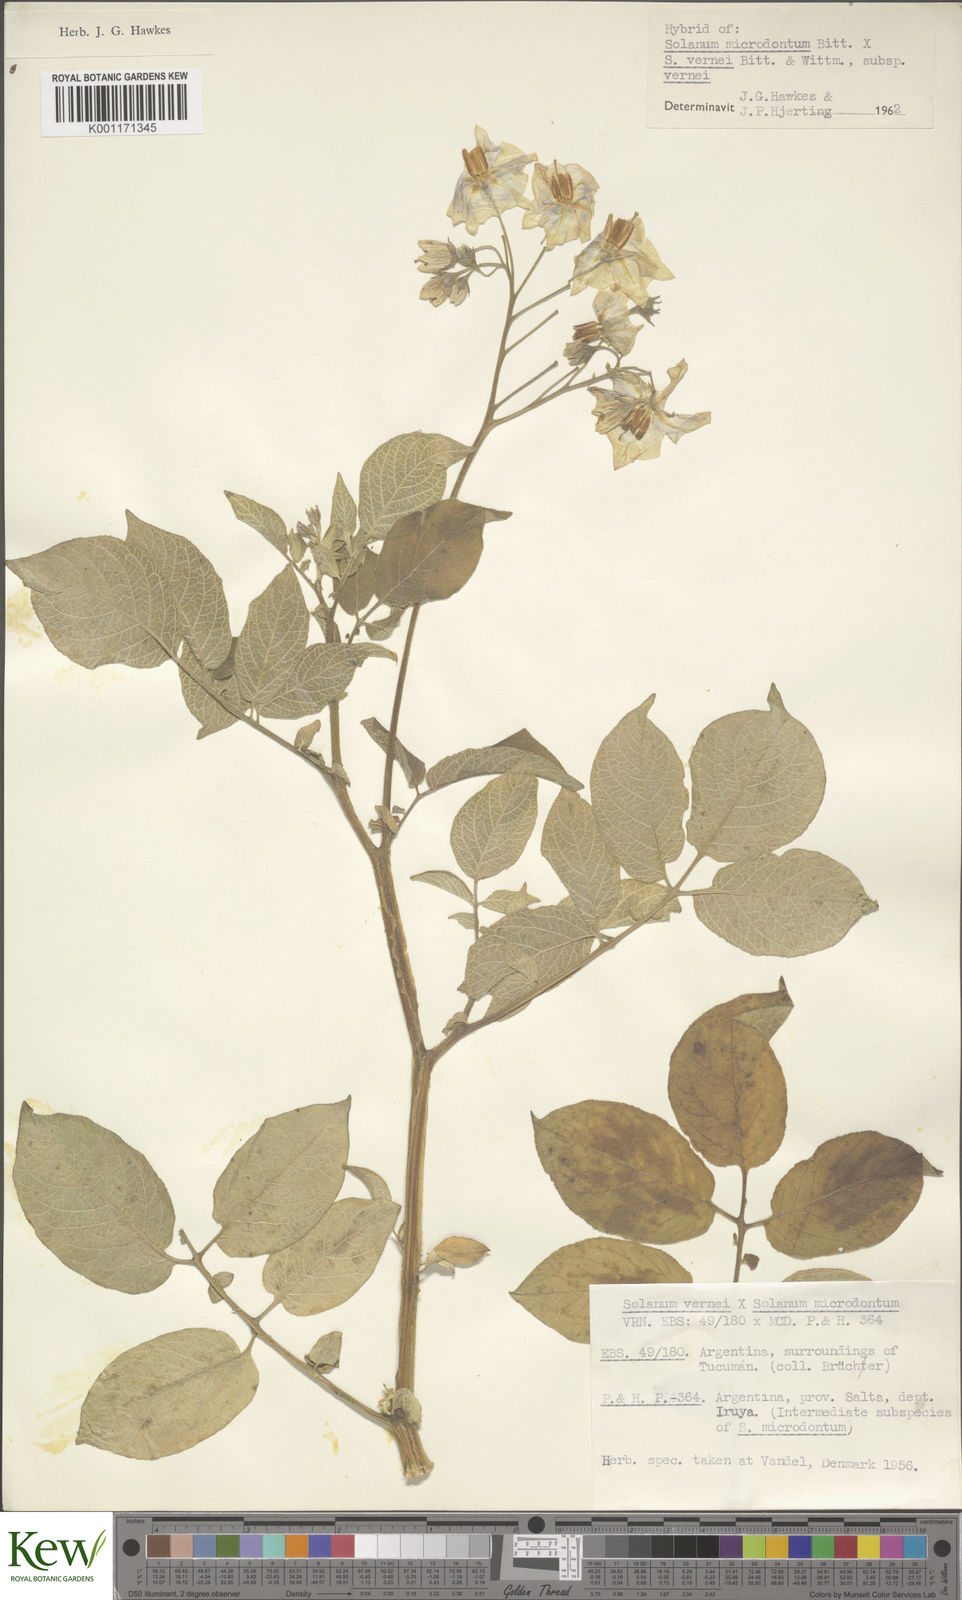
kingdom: Plantae
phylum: Tracheophyta
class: Magnoliopsida
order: Solanales
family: Solanaceae
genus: Solanum
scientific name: Solanum vernei
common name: Purple potato
